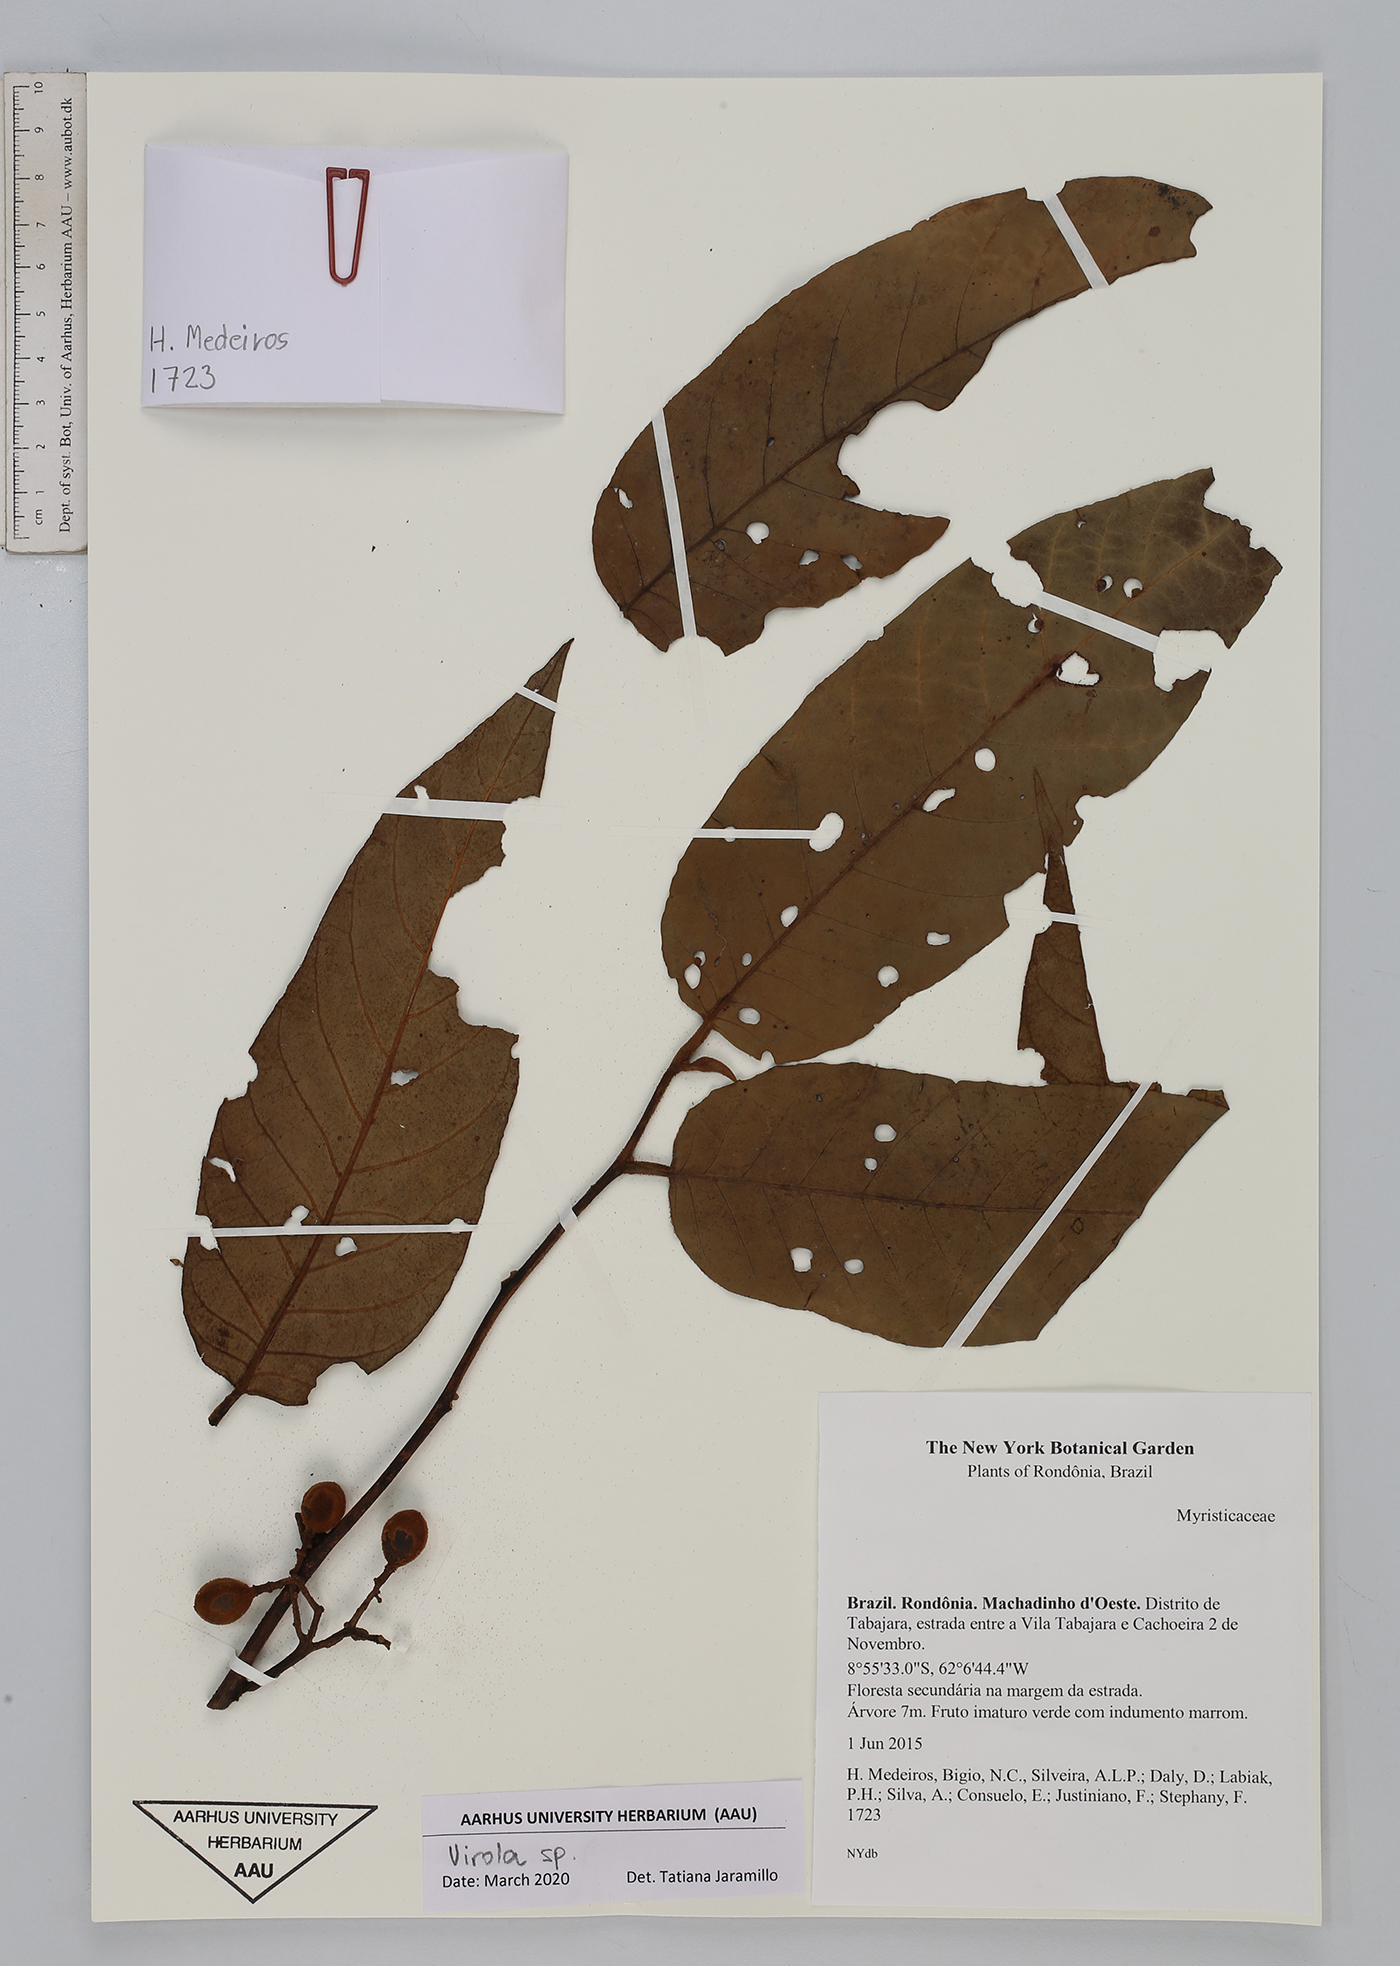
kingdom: Plantae
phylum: Tracheophyta
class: Magnoliopsida
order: Magnoliales
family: Myristicaceae
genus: Virola
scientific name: Virola
